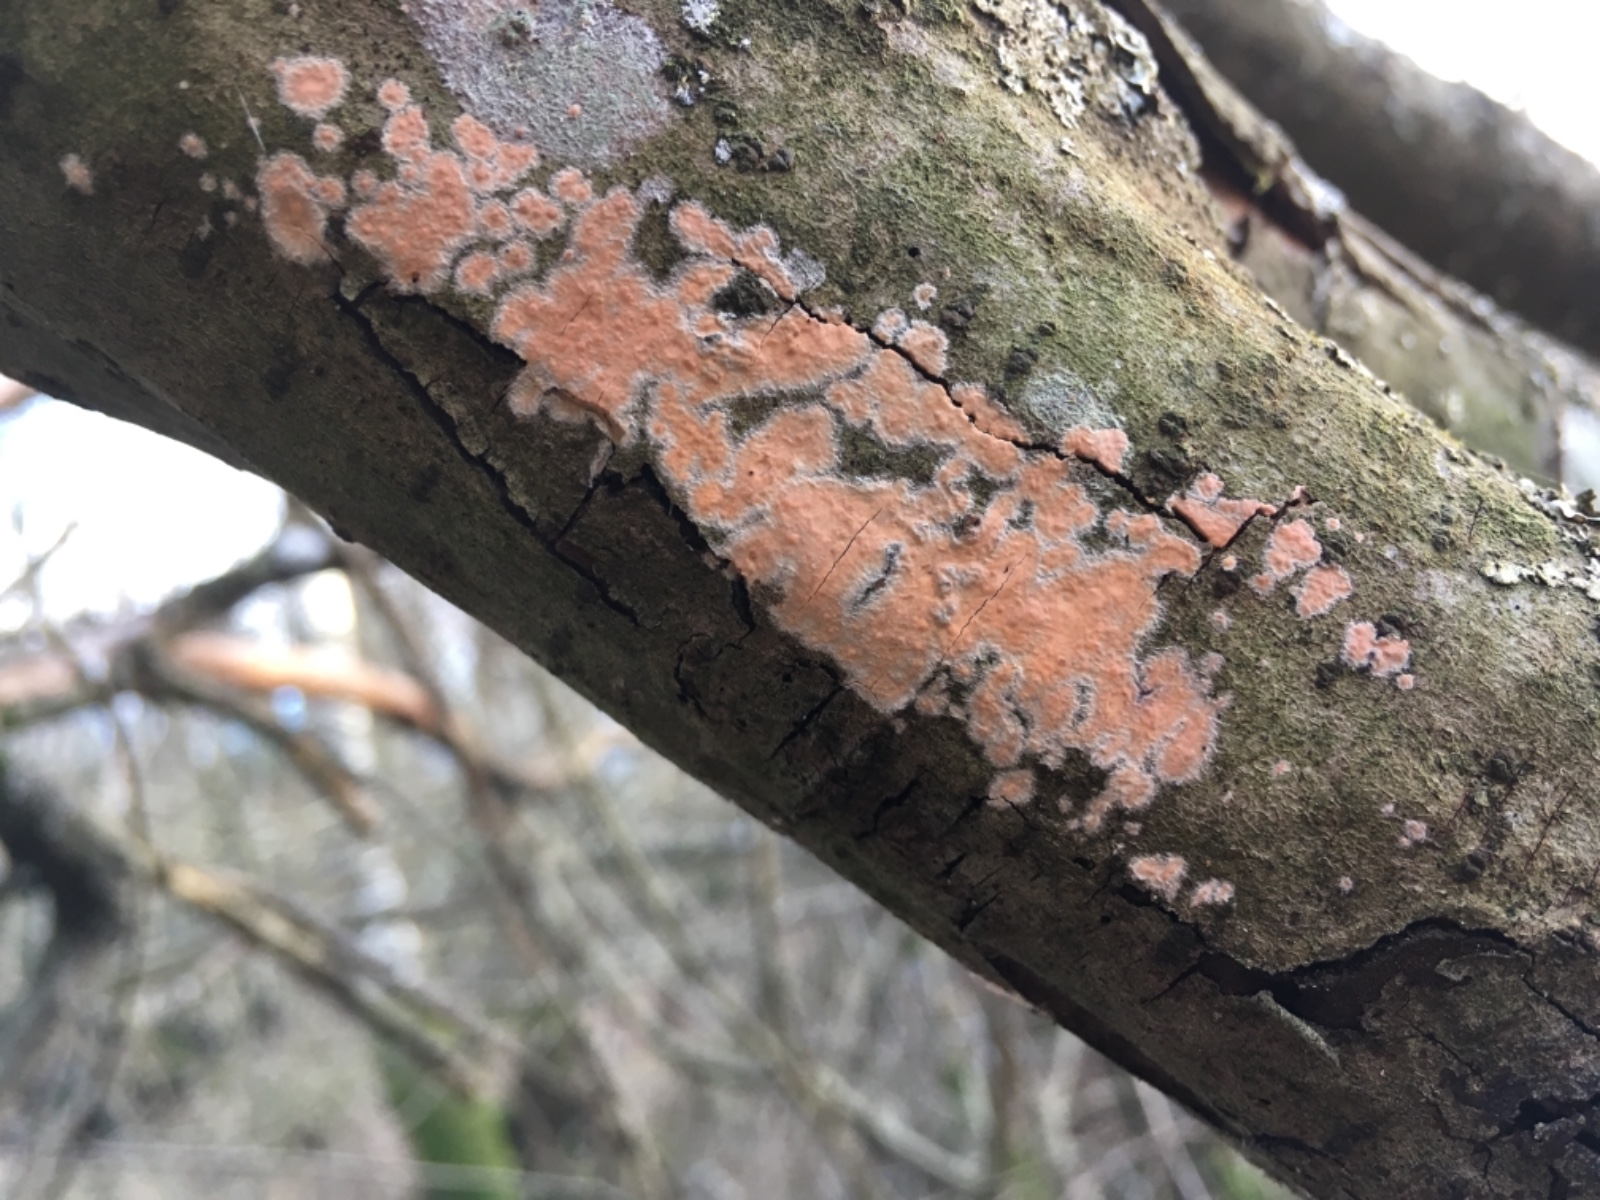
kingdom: Fungi
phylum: Basidiomycota
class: Agaricomycetes
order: Russulales
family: Peniophoraceae
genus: Peniophora
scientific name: Peniophora incarnata
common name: laksefarvet voksskind
